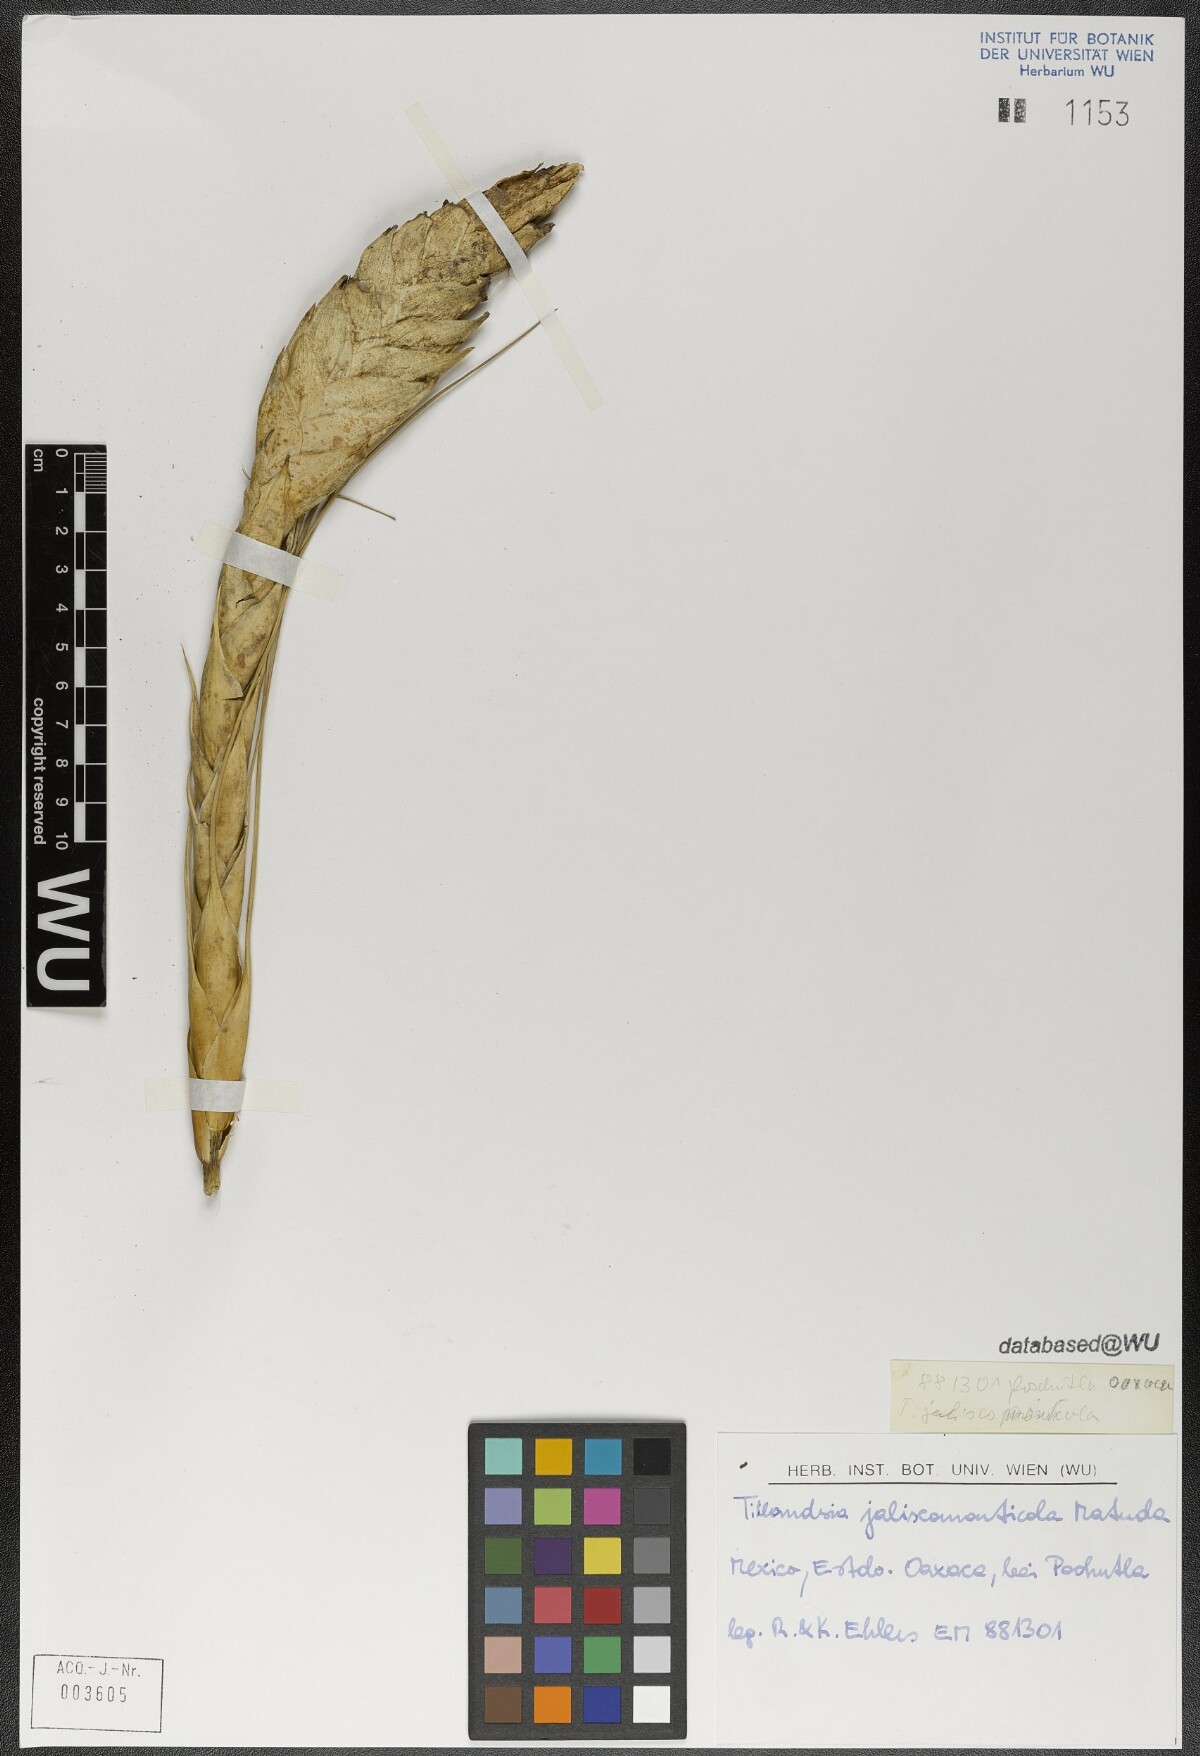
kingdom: Plantae
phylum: Tracheophyta
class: Liliopsida
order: Poales
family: Bromeliaceae
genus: Tillandsia
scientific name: Tillandsia compressa
